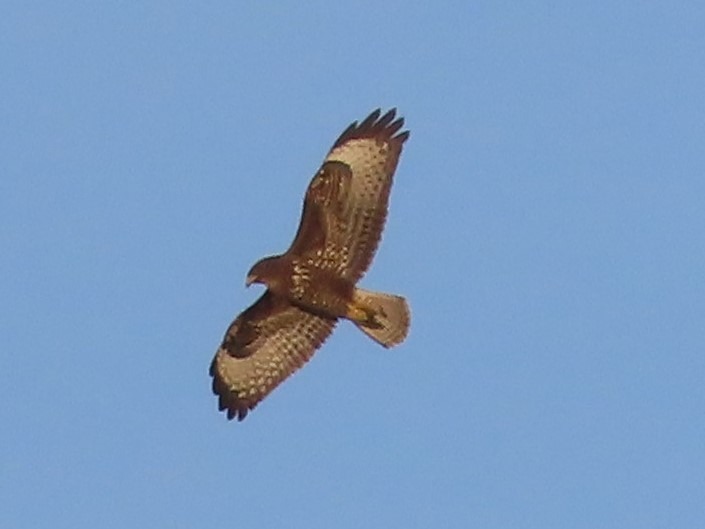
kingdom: Animalia
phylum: Chordata
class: Aves
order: Accipitriformes
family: Accipitridae
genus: Buteo
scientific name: Buteo buteo
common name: Musvåge
